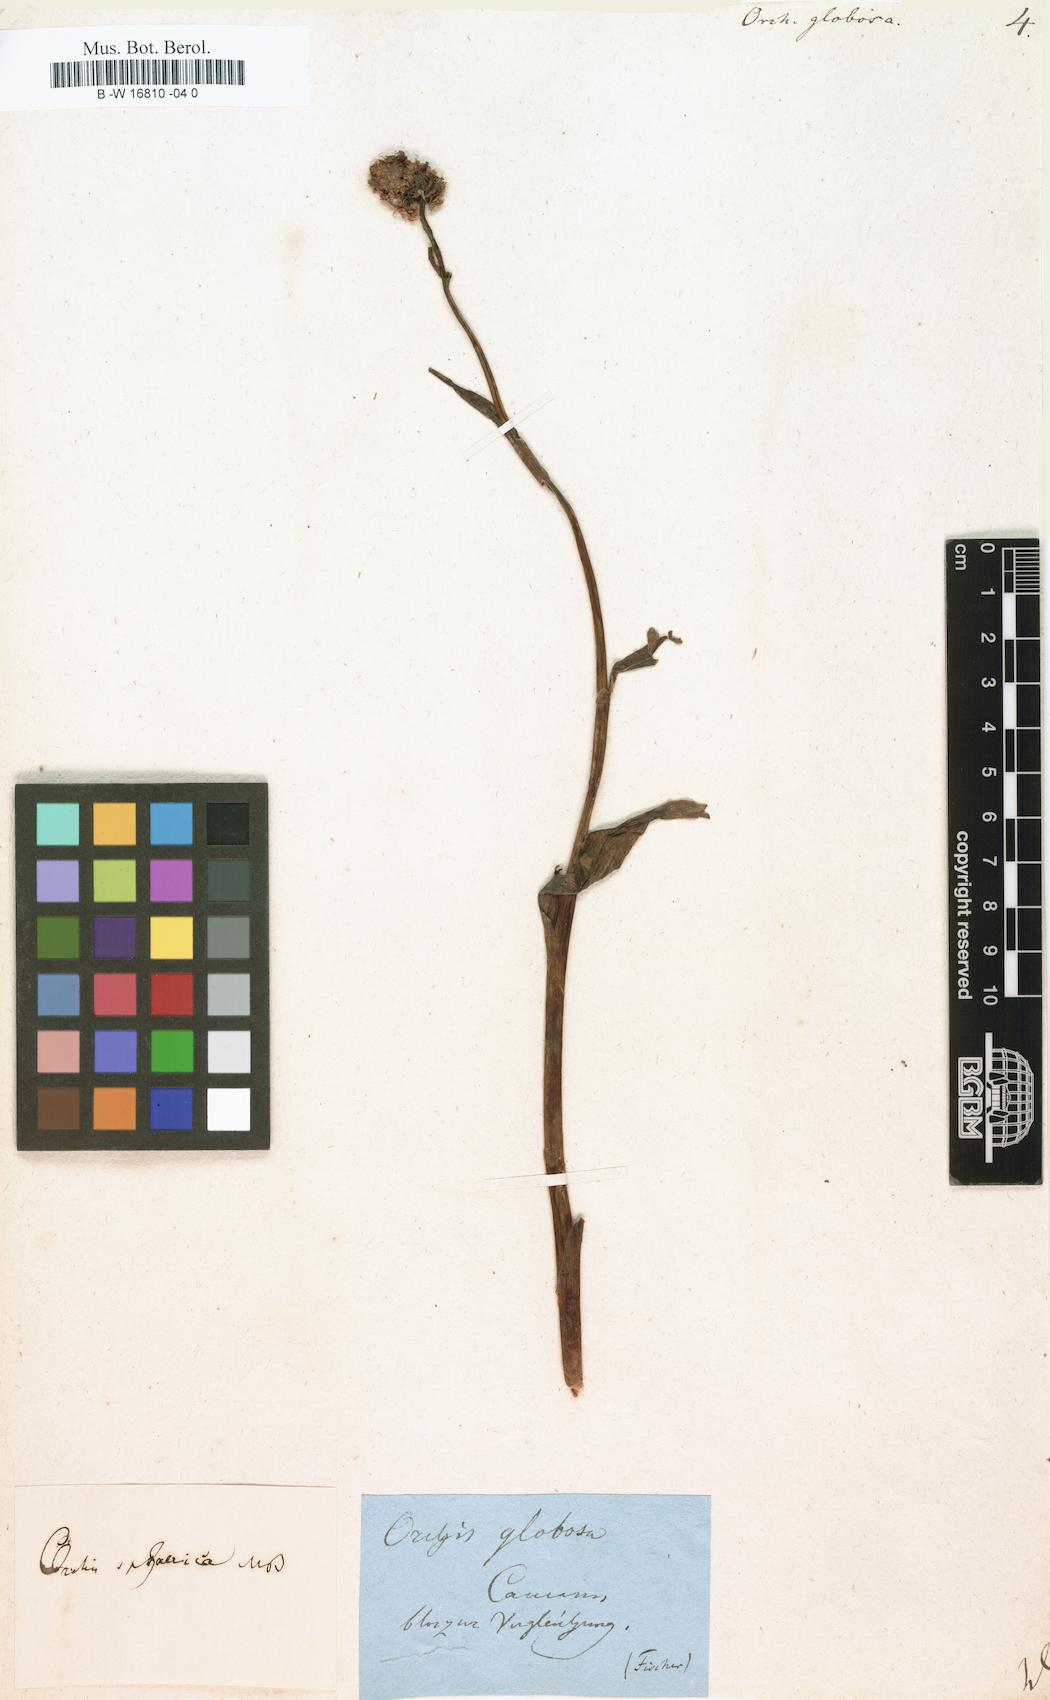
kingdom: Plantae
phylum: Tracheophyta
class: Liliopsida
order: Asparagales
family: Orchidaceae
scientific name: Orchidaceae
